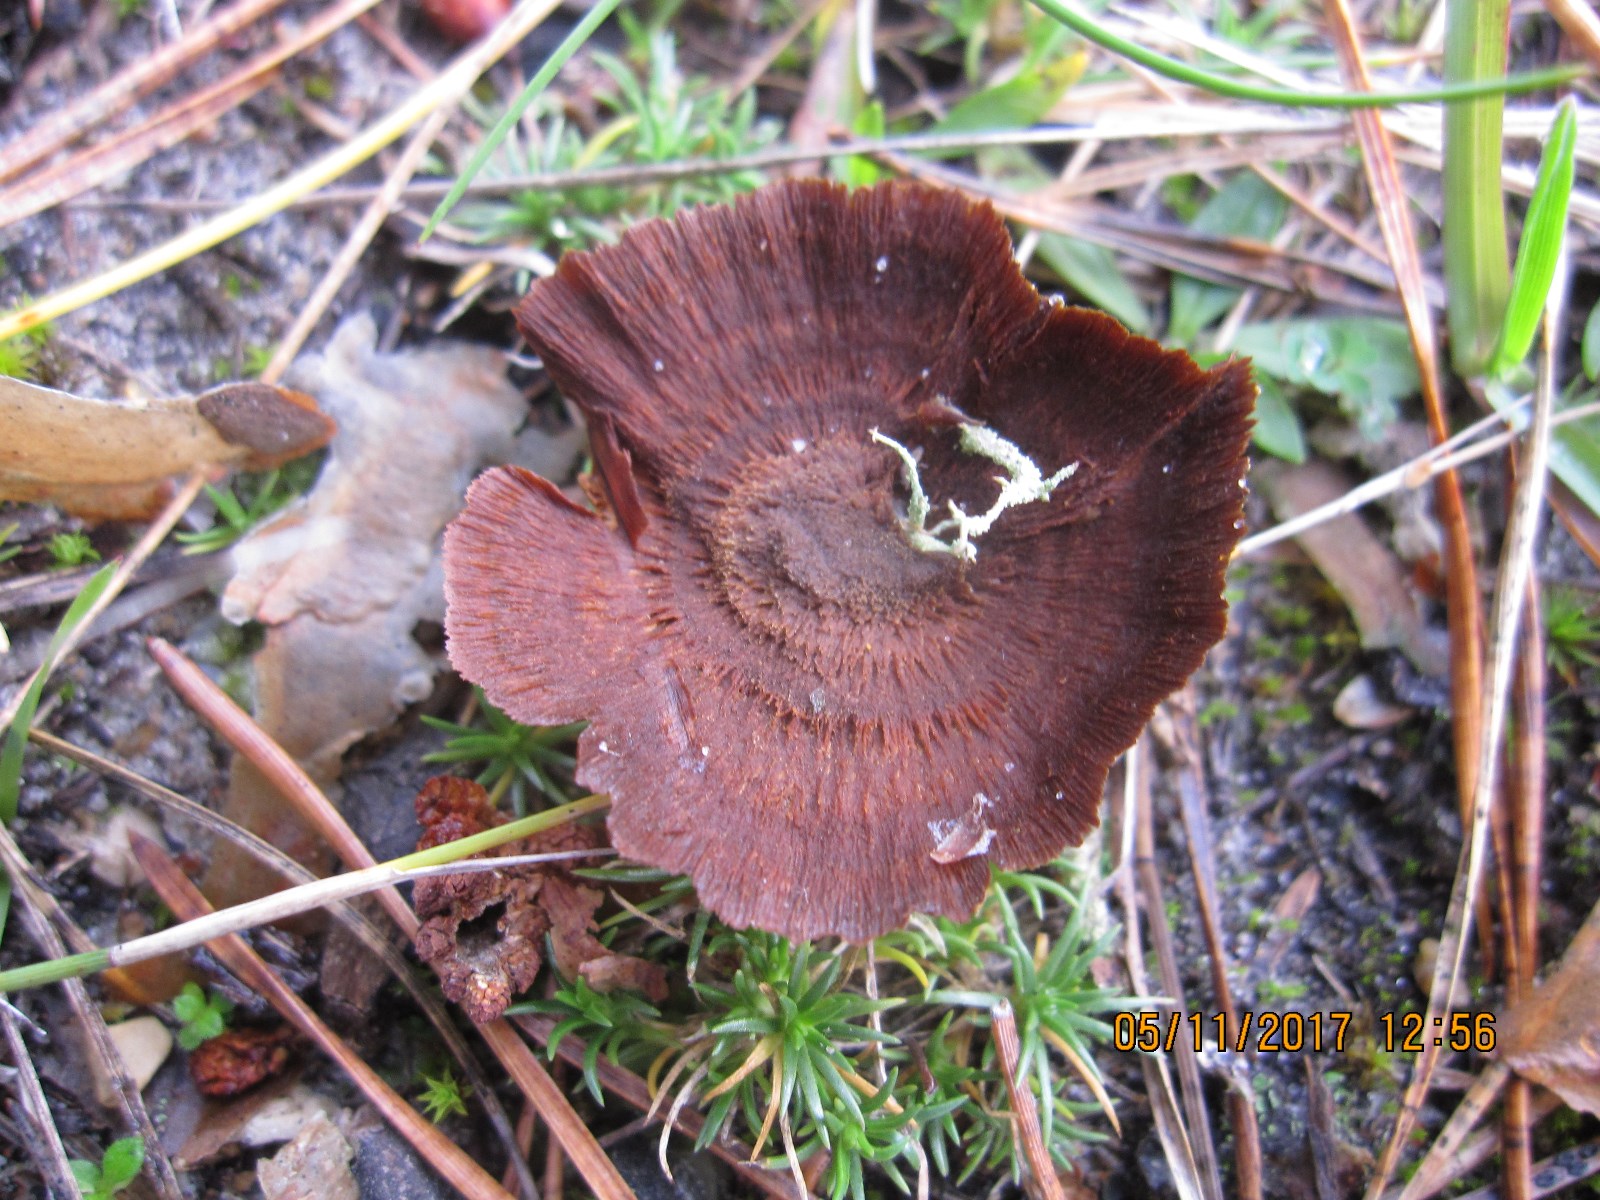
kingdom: Fungi
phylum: Basidiomycota
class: Agaricomycetes
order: Hymenochaetales
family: Hymenochaetaceae
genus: Coltricia
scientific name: Coltricia perennis
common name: almindelig sandporesvamp
